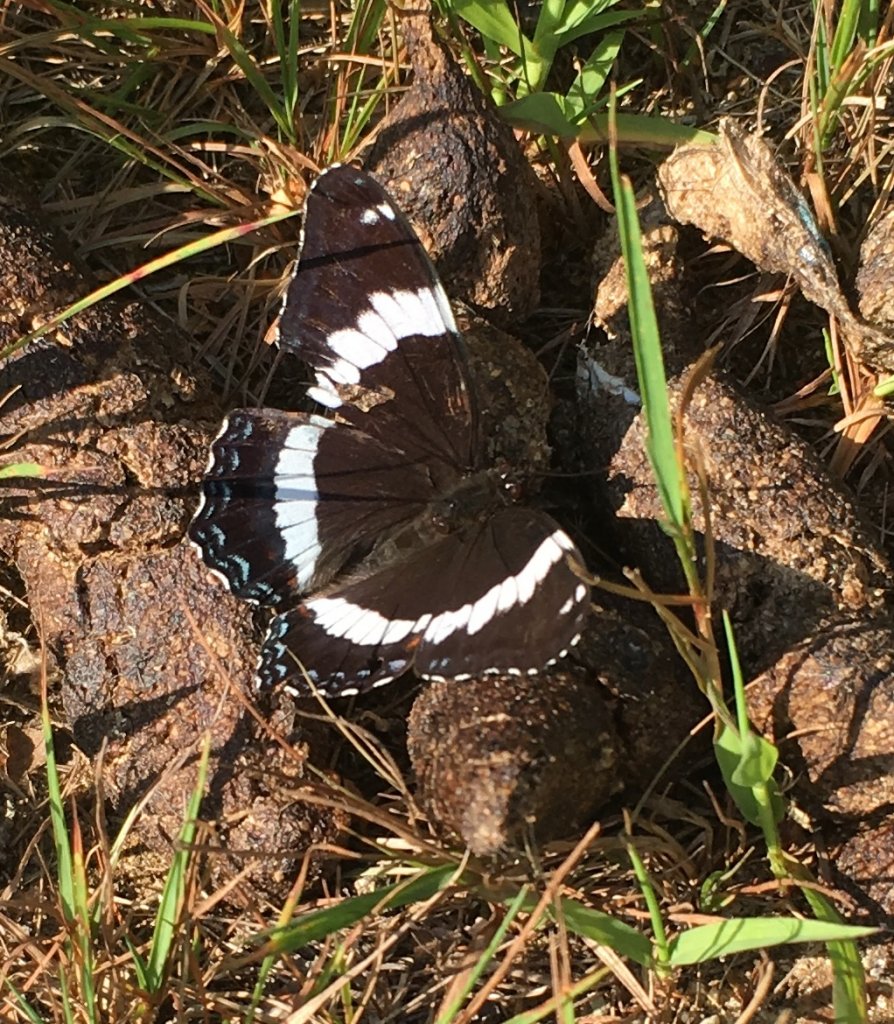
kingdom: Animalia
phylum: Arthropoda
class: Insecta
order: Lepidoptera
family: Nymphalidae
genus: Limenitis
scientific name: Limenitis arthemis
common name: Red-spotted Admiral
